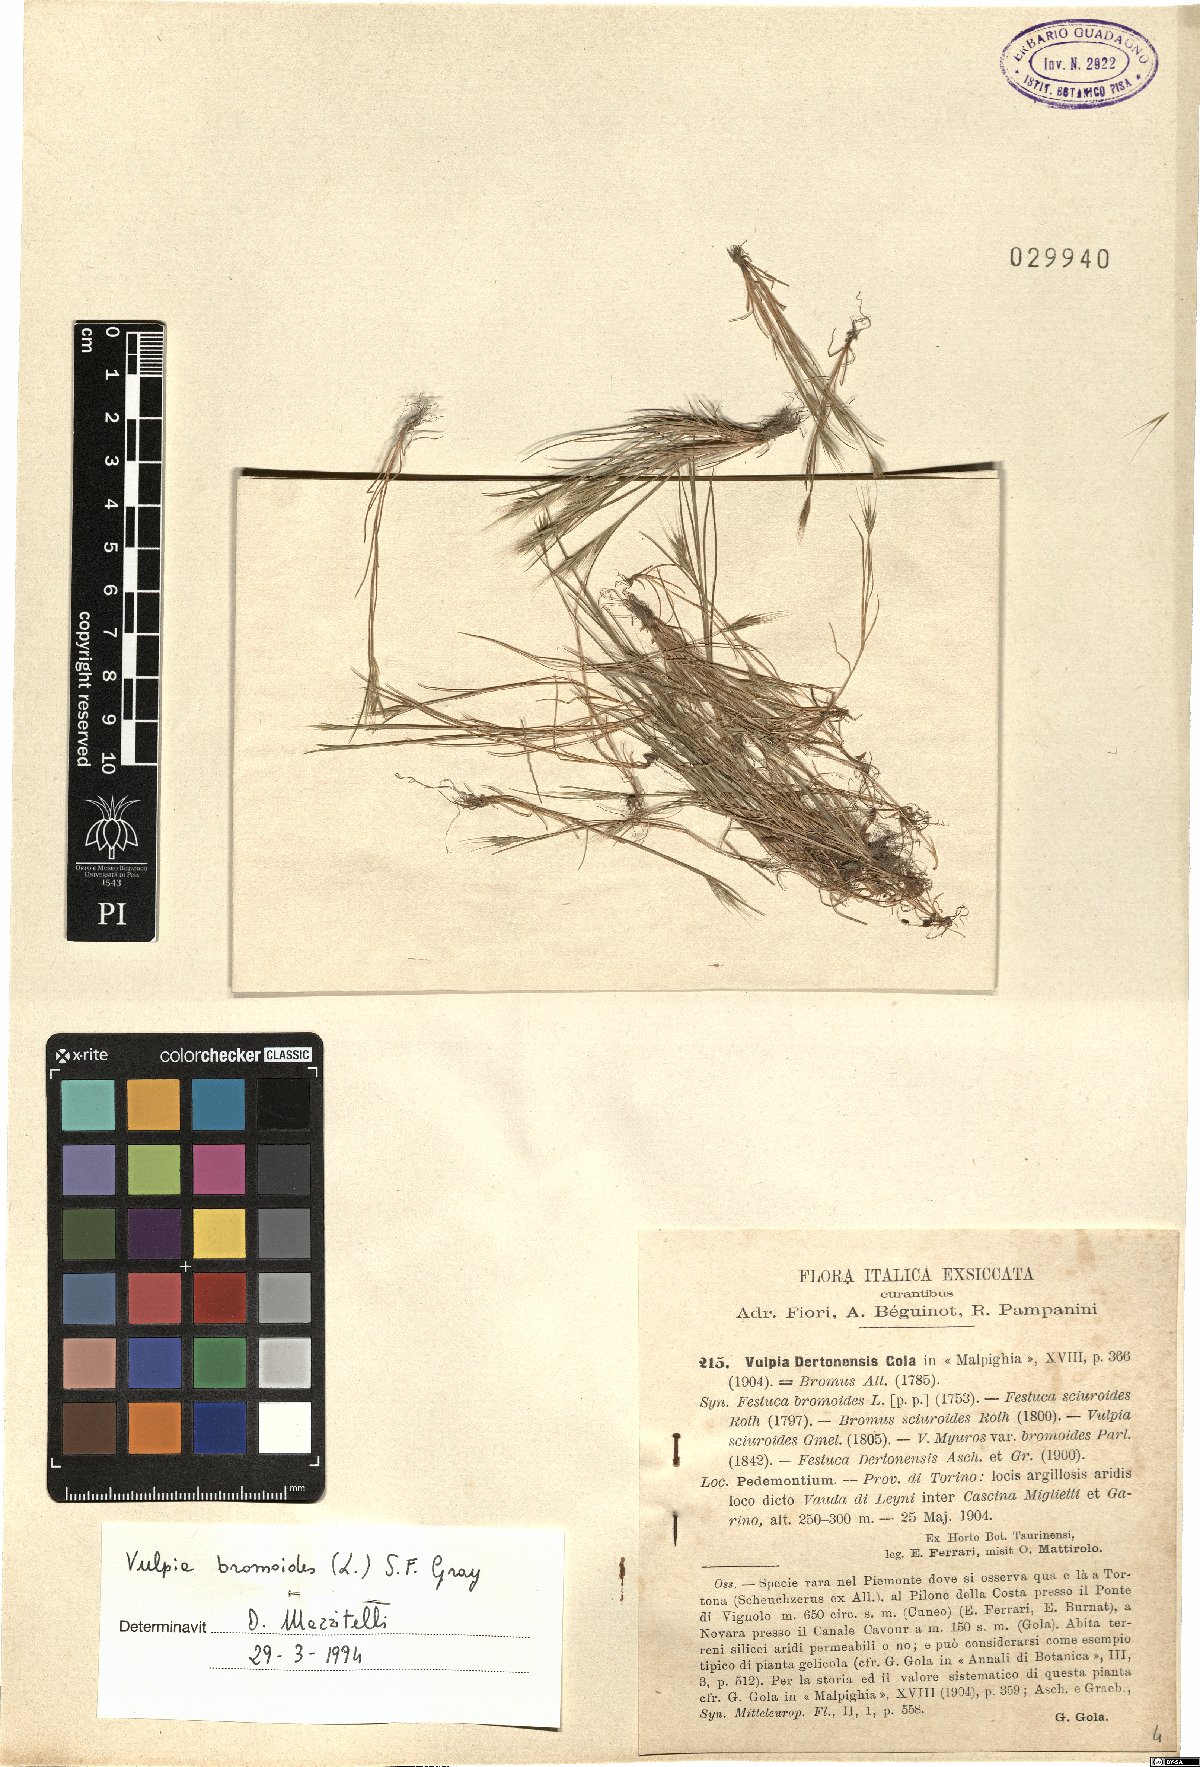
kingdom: Plantae
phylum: Tracheophyta
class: Liliopsida
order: Poales
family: Poaceae
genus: Festuca
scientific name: Festuca bromoides
